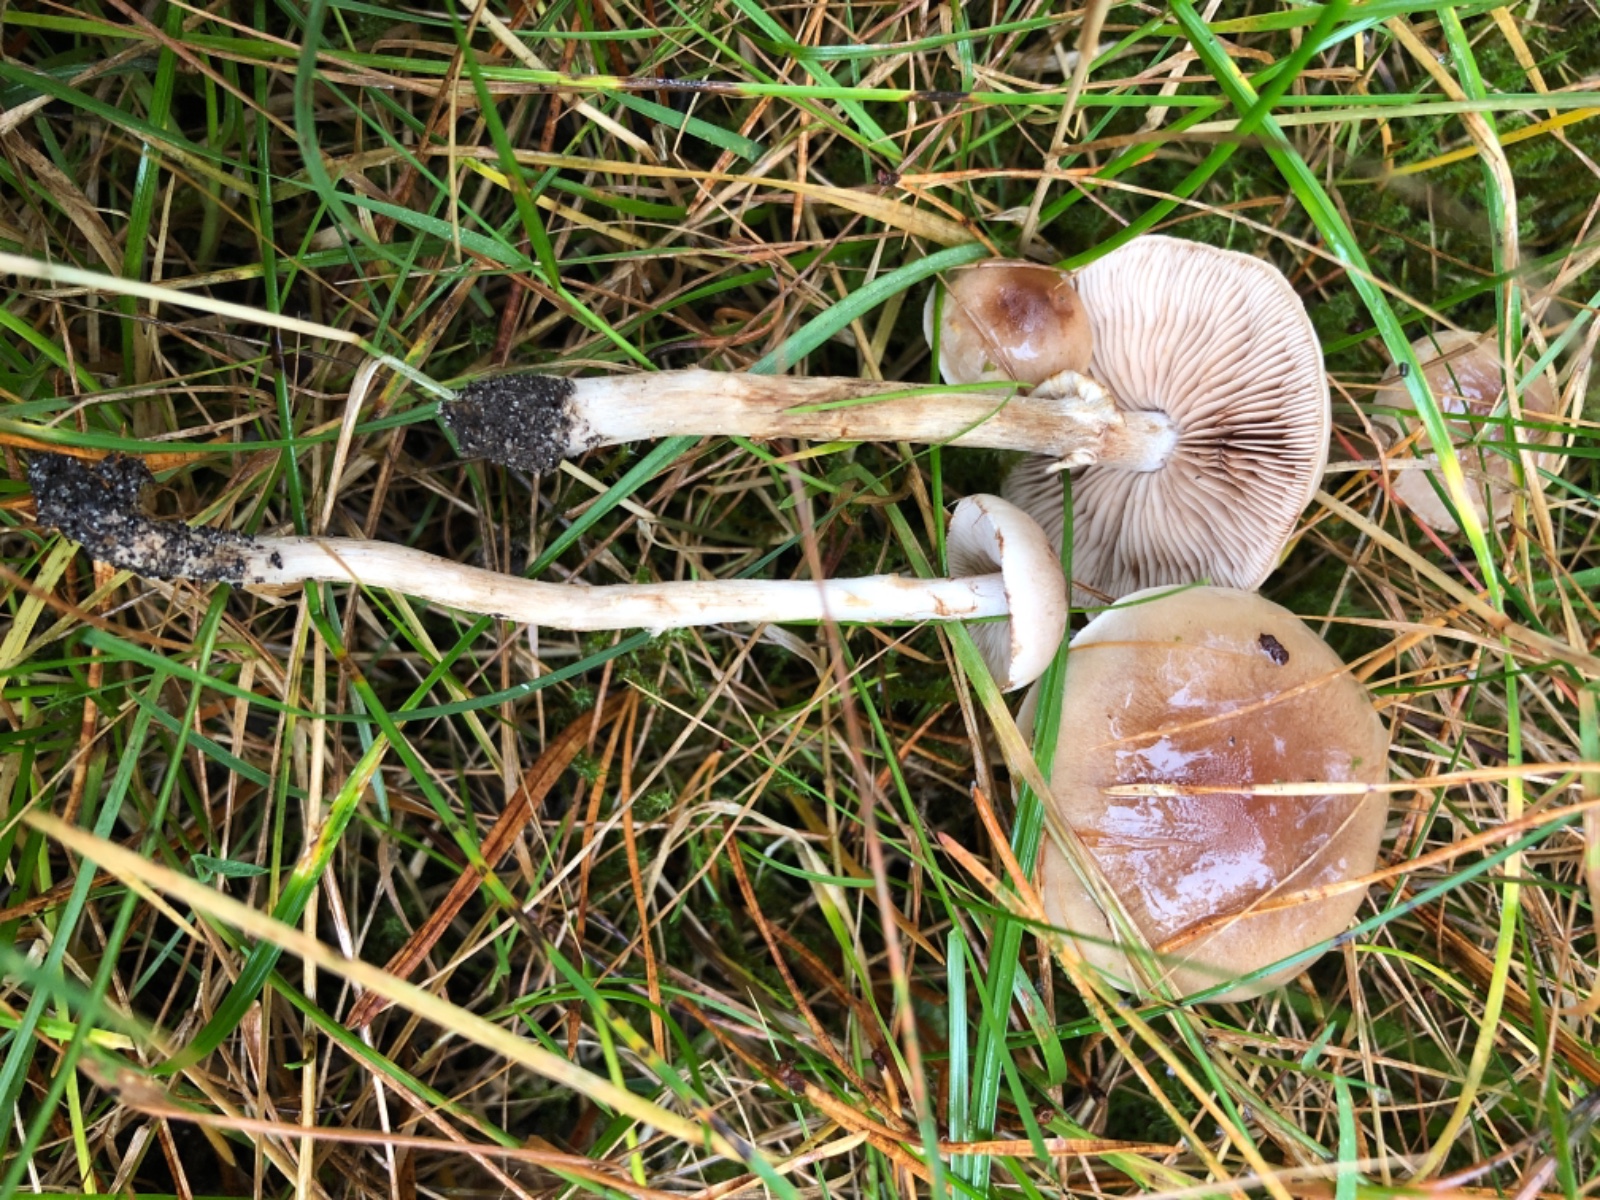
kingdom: Fungi
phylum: Basidiomycota
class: Agaricomycetes
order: Agaricales
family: Hymenogastraceae
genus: Hebeloma
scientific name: Hebeloma
